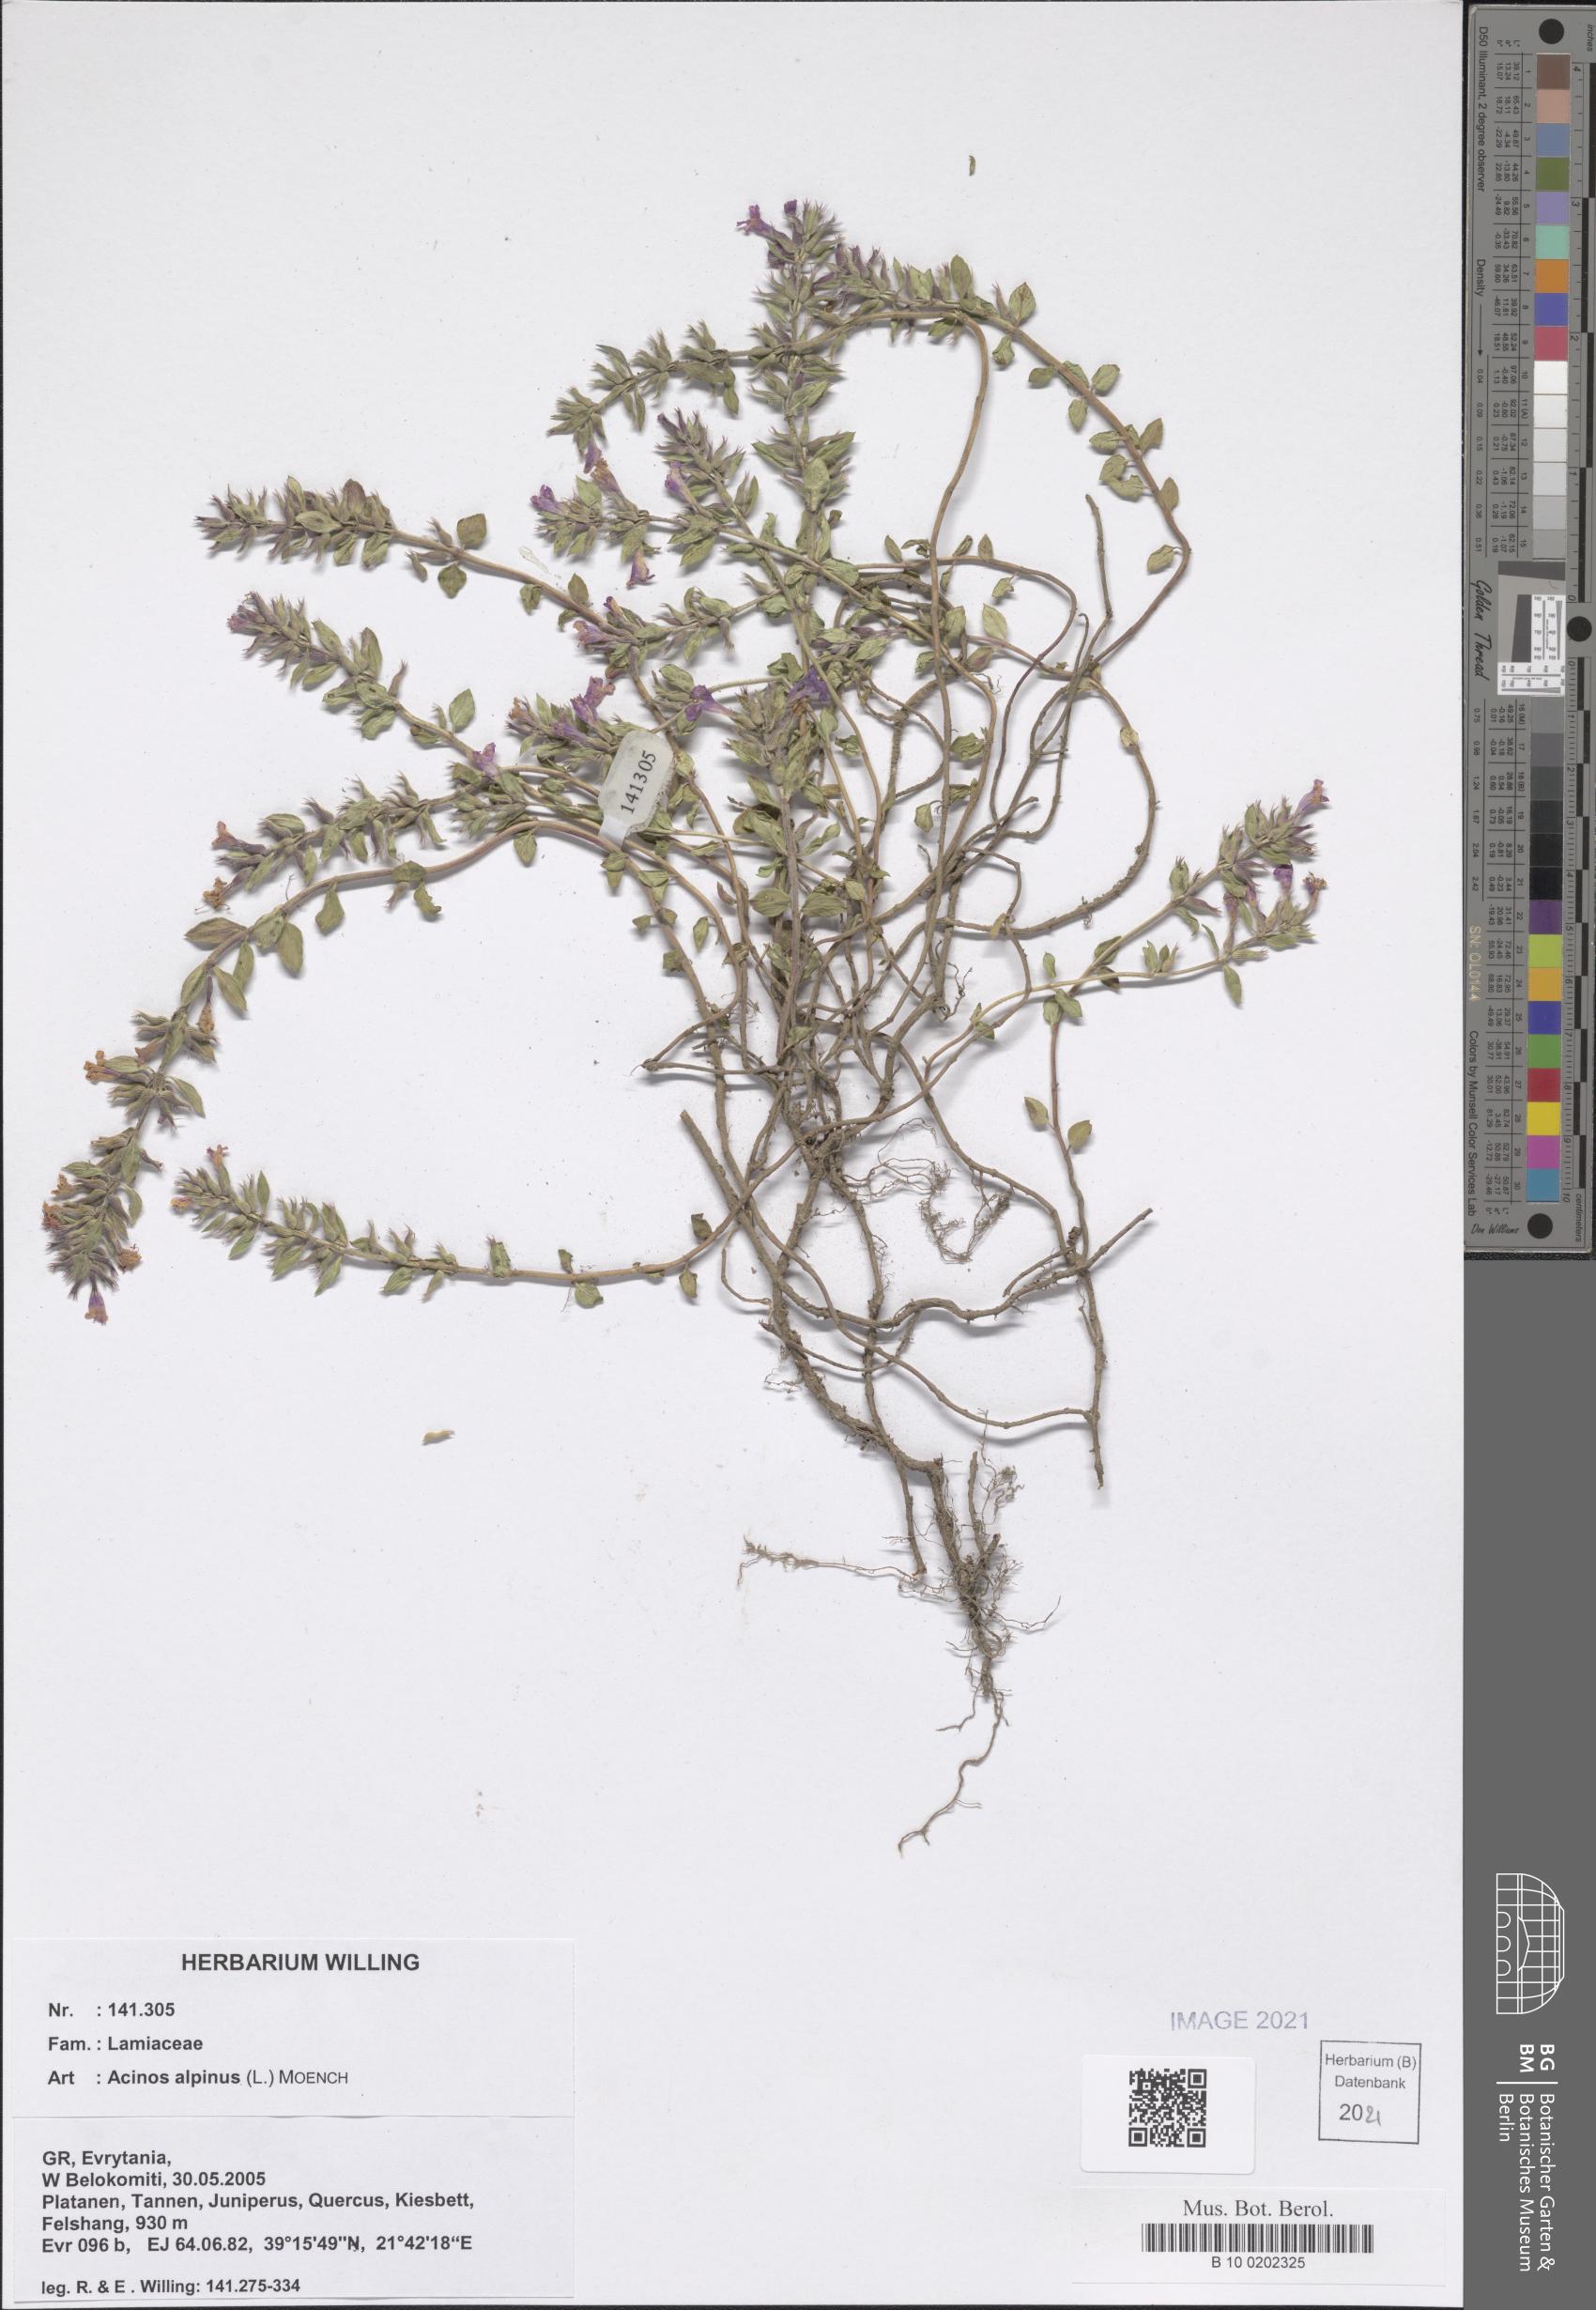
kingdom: Plantae
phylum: Tracheophyta
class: Magnoliopsida
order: Lamiales
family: Lamiaceae
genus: Clinopodium
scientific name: Clinopodium alpinum
